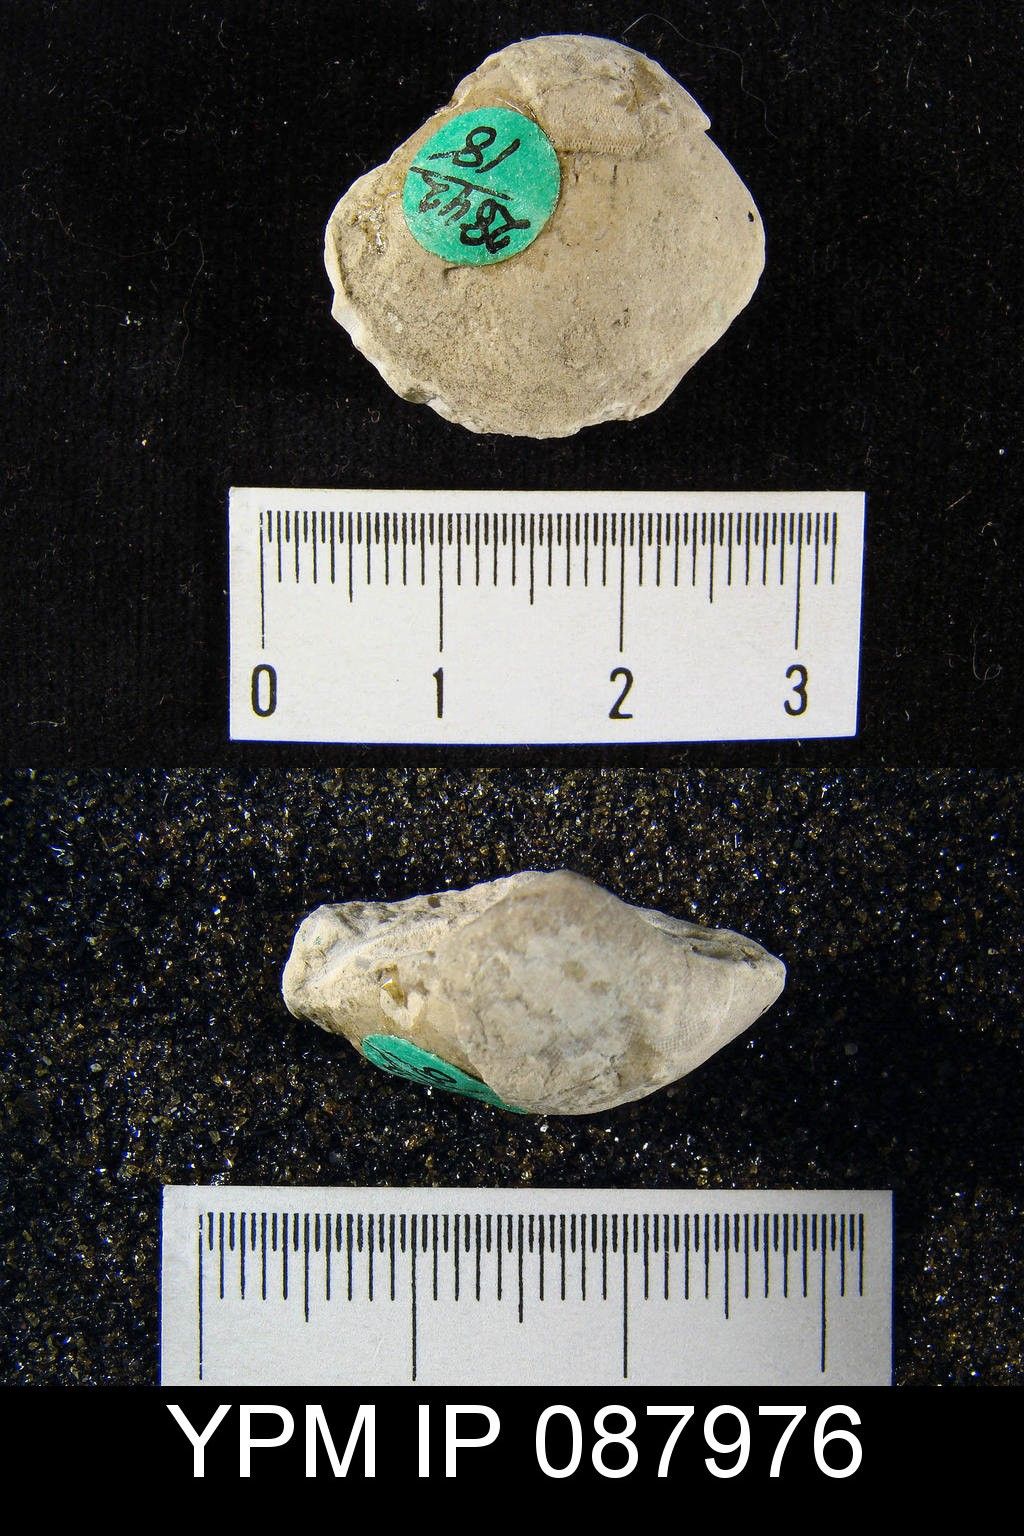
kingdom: Animalia
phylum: Brachiopoda
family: Eichwaldiidae
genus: Eodictyonella
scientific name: Eodictyonella Dictyonella gibbosa
